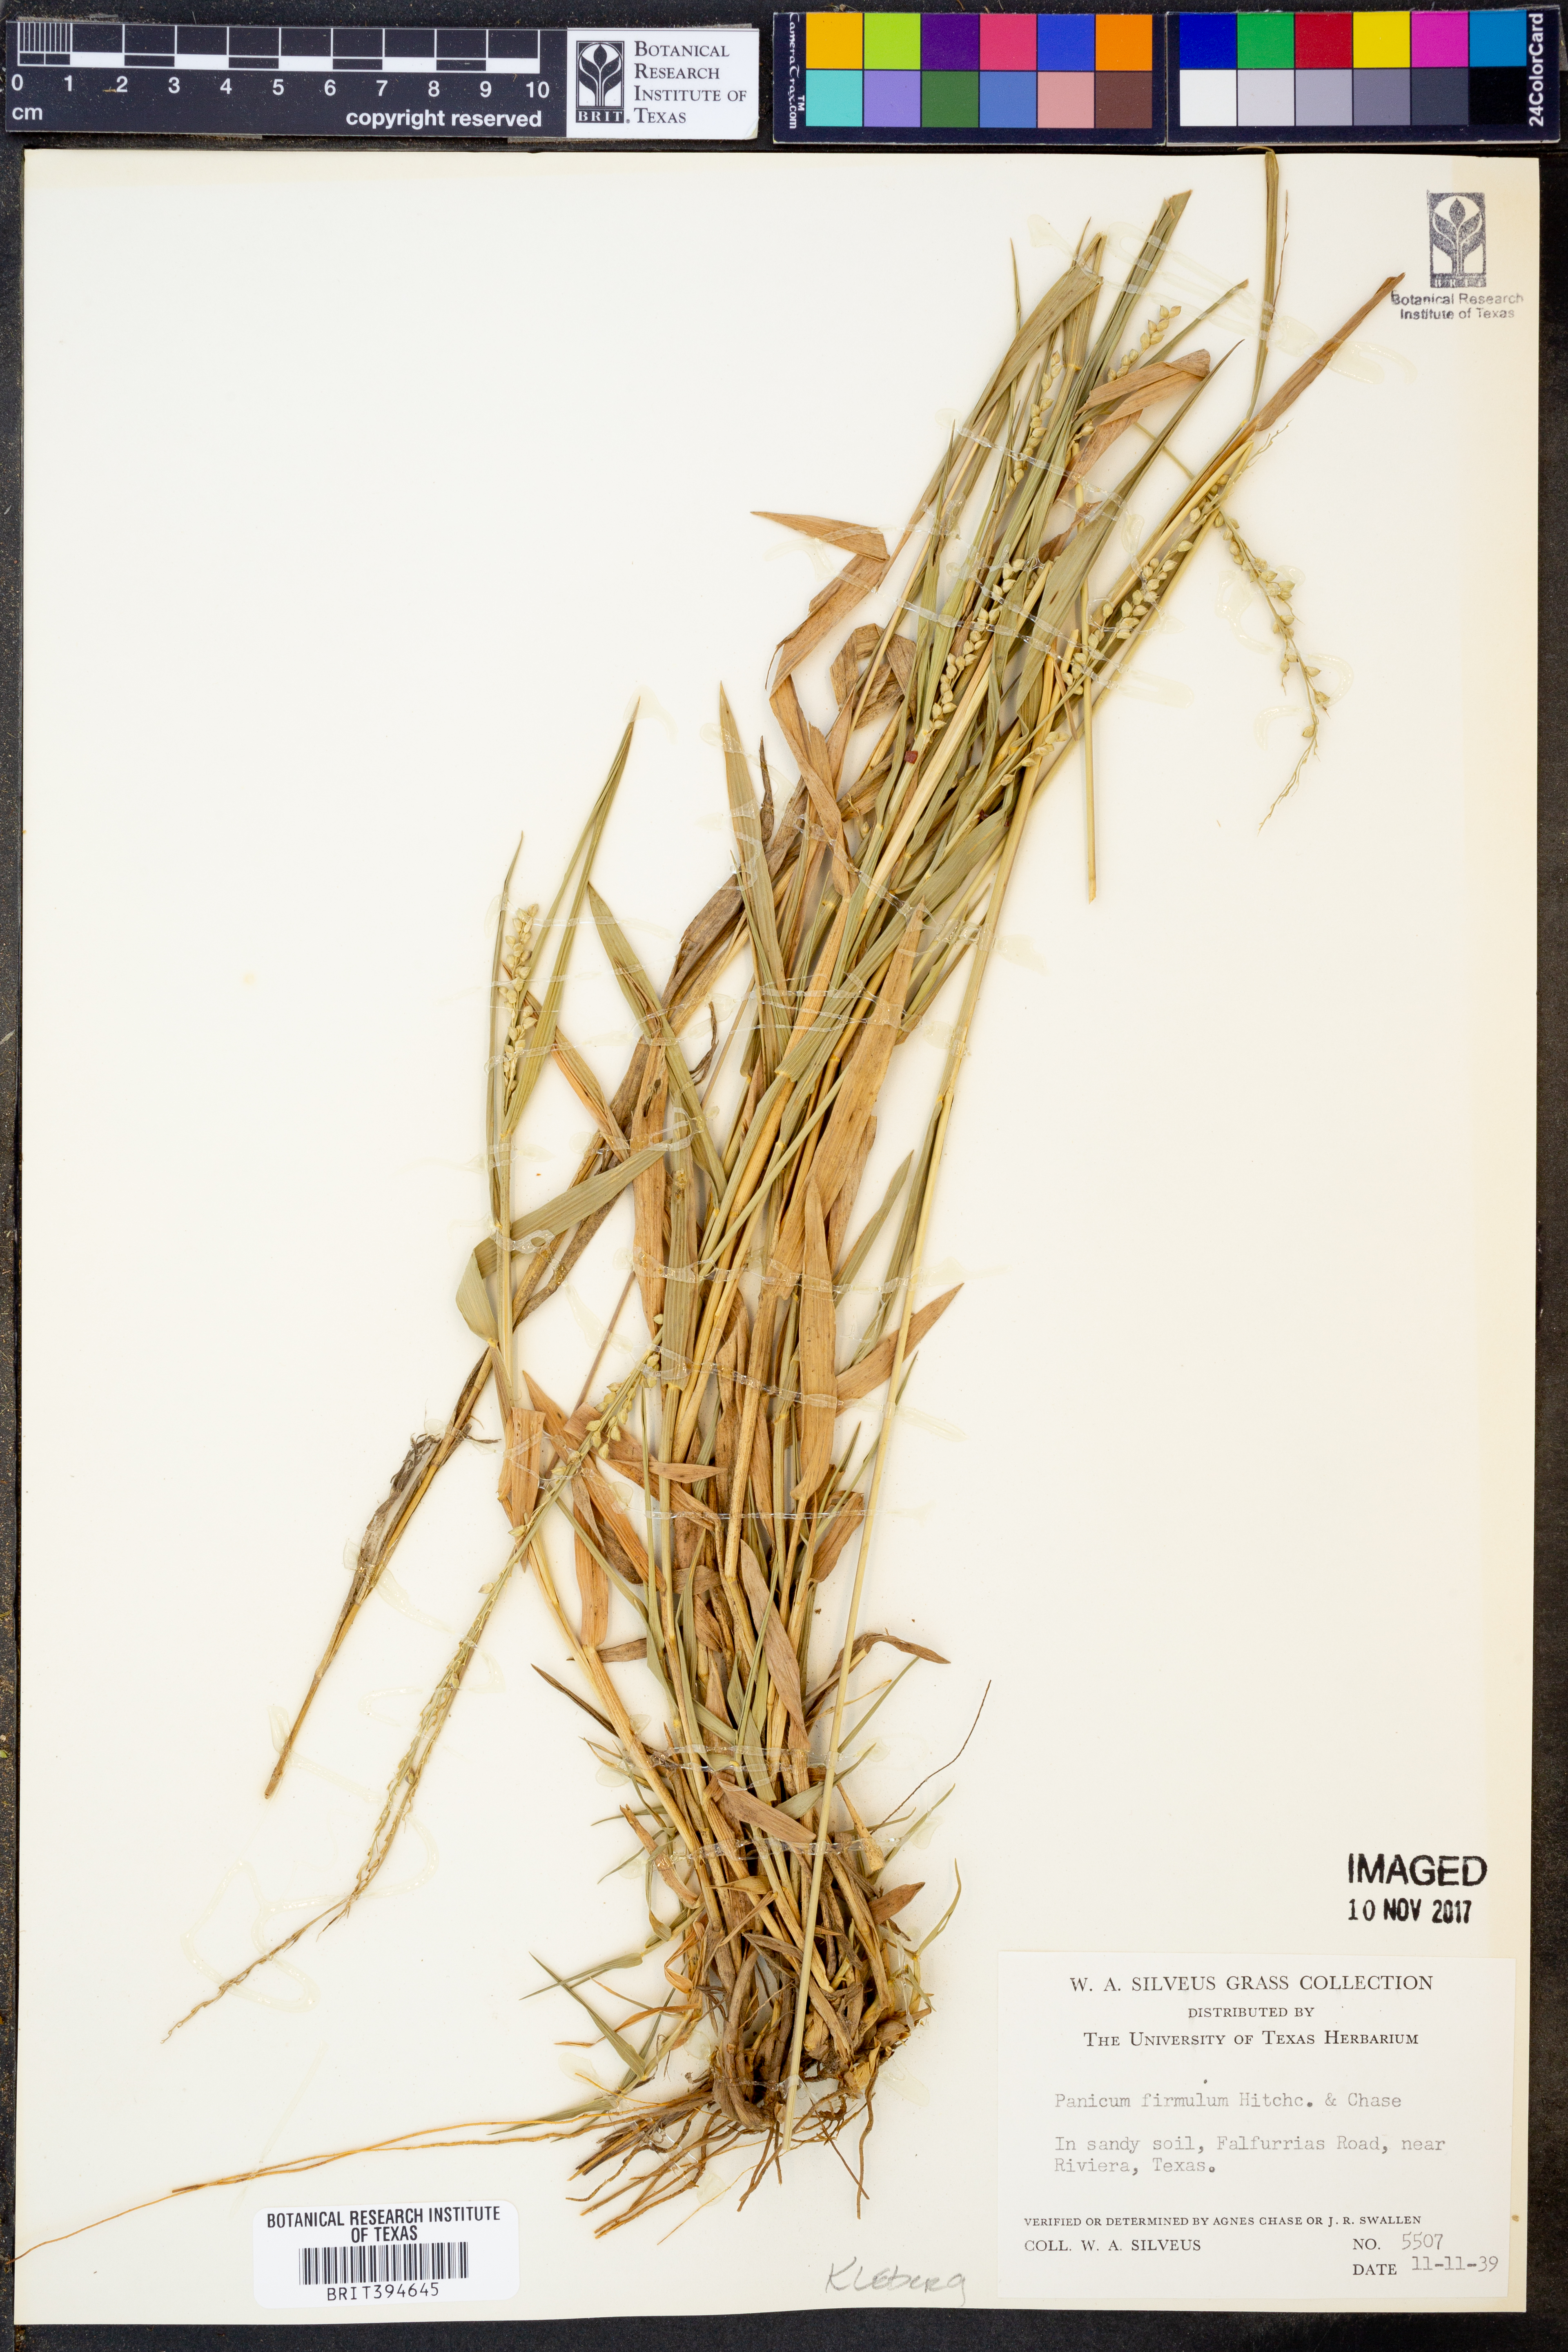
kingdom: Plantae
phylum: Tracheophyta
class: Liliopsida
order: Poales
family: Poaceae
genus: Setaria
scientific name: Setaria reverchonii
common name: Reverchon's bristle grass
